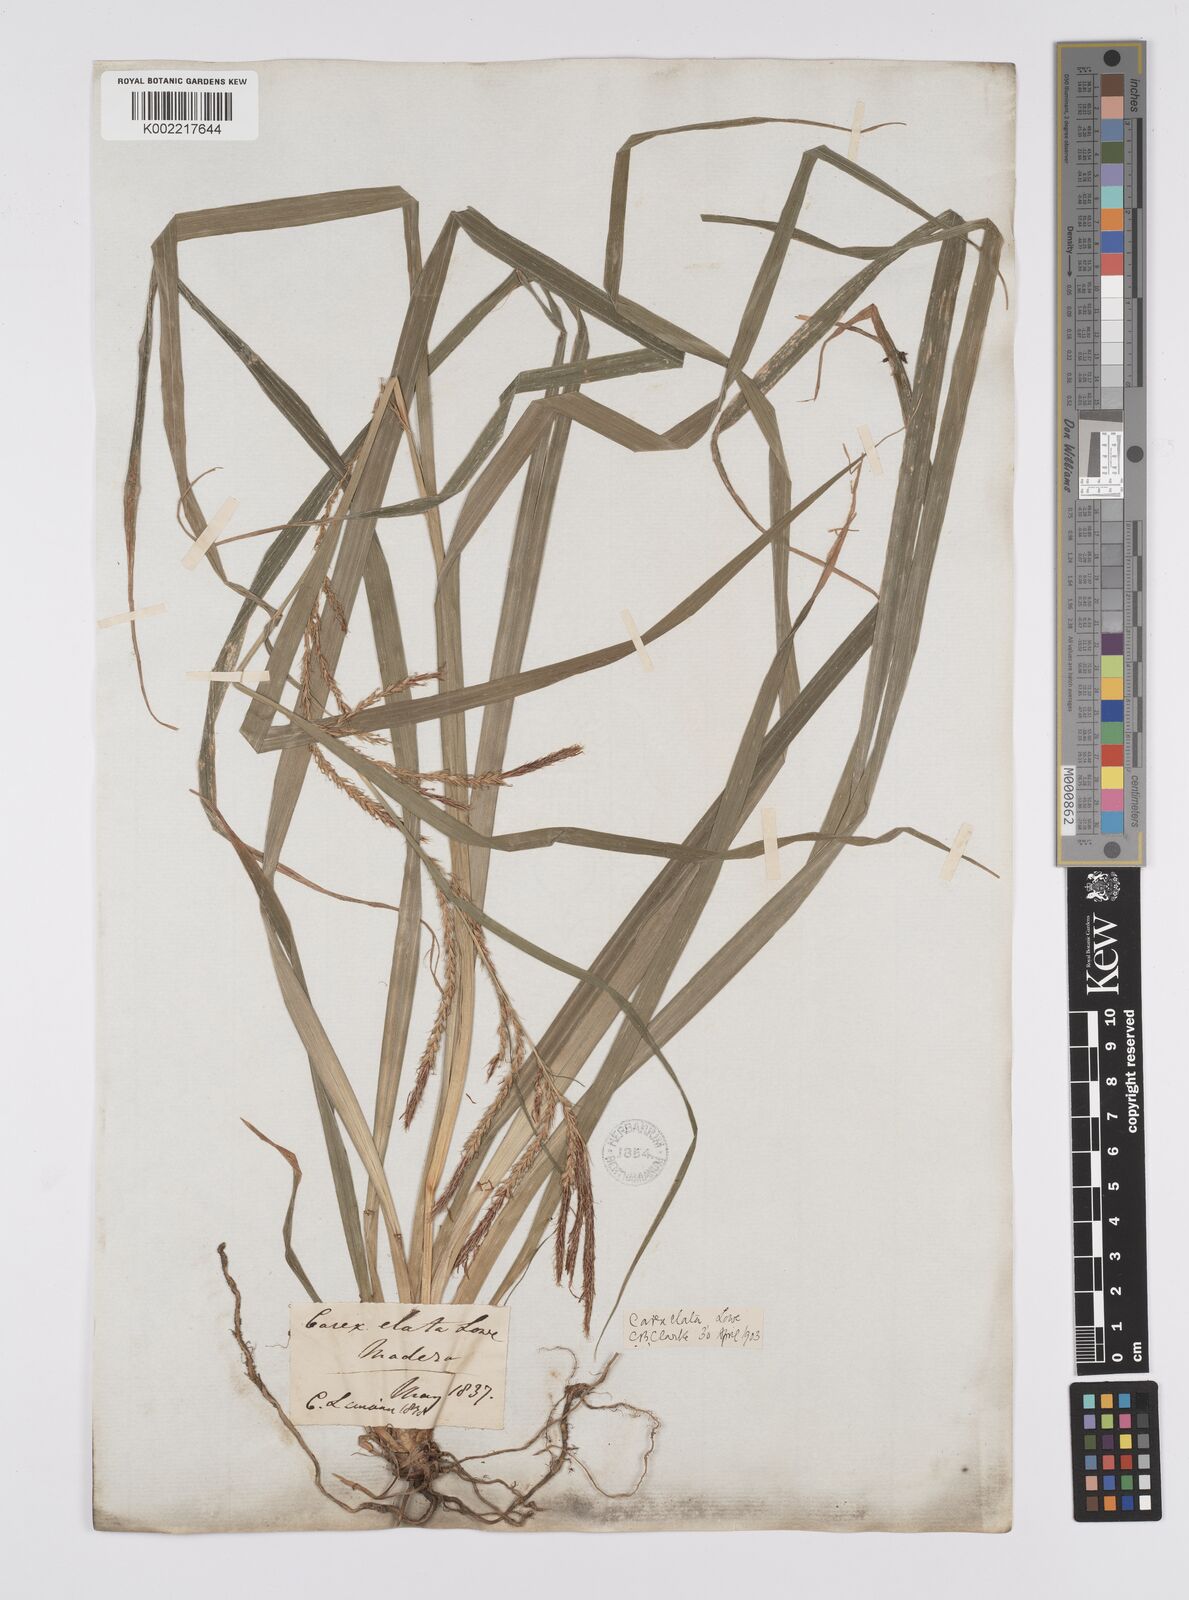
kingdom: Plantae
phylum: Tracheophyta
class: Liliopsida
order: Poales
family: Cyperaceae
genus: Carex
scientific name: Carex lowei
